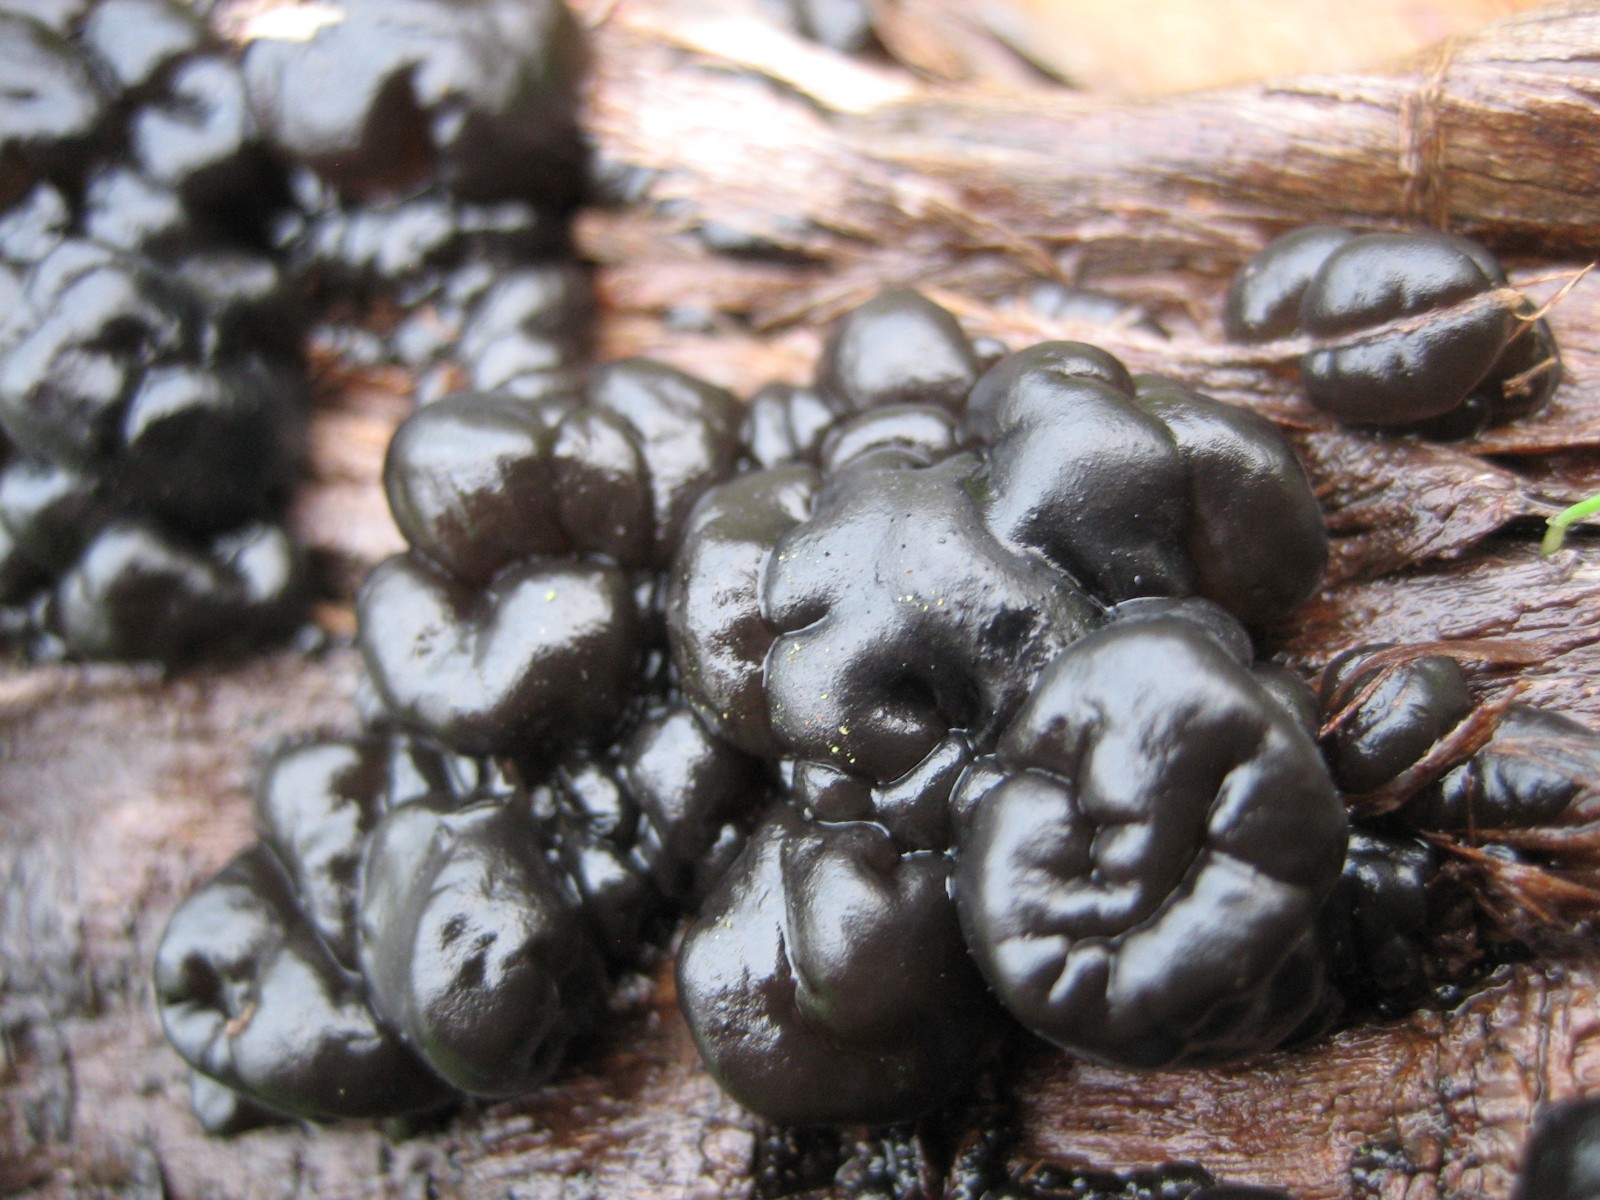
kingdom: Fungi
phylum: Basidiomycota
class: Agaricomycetes
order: Auriculariales
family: Auriculariaceae
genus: Exidia
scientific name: Exidia nigricans
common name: almindelig bævretop
